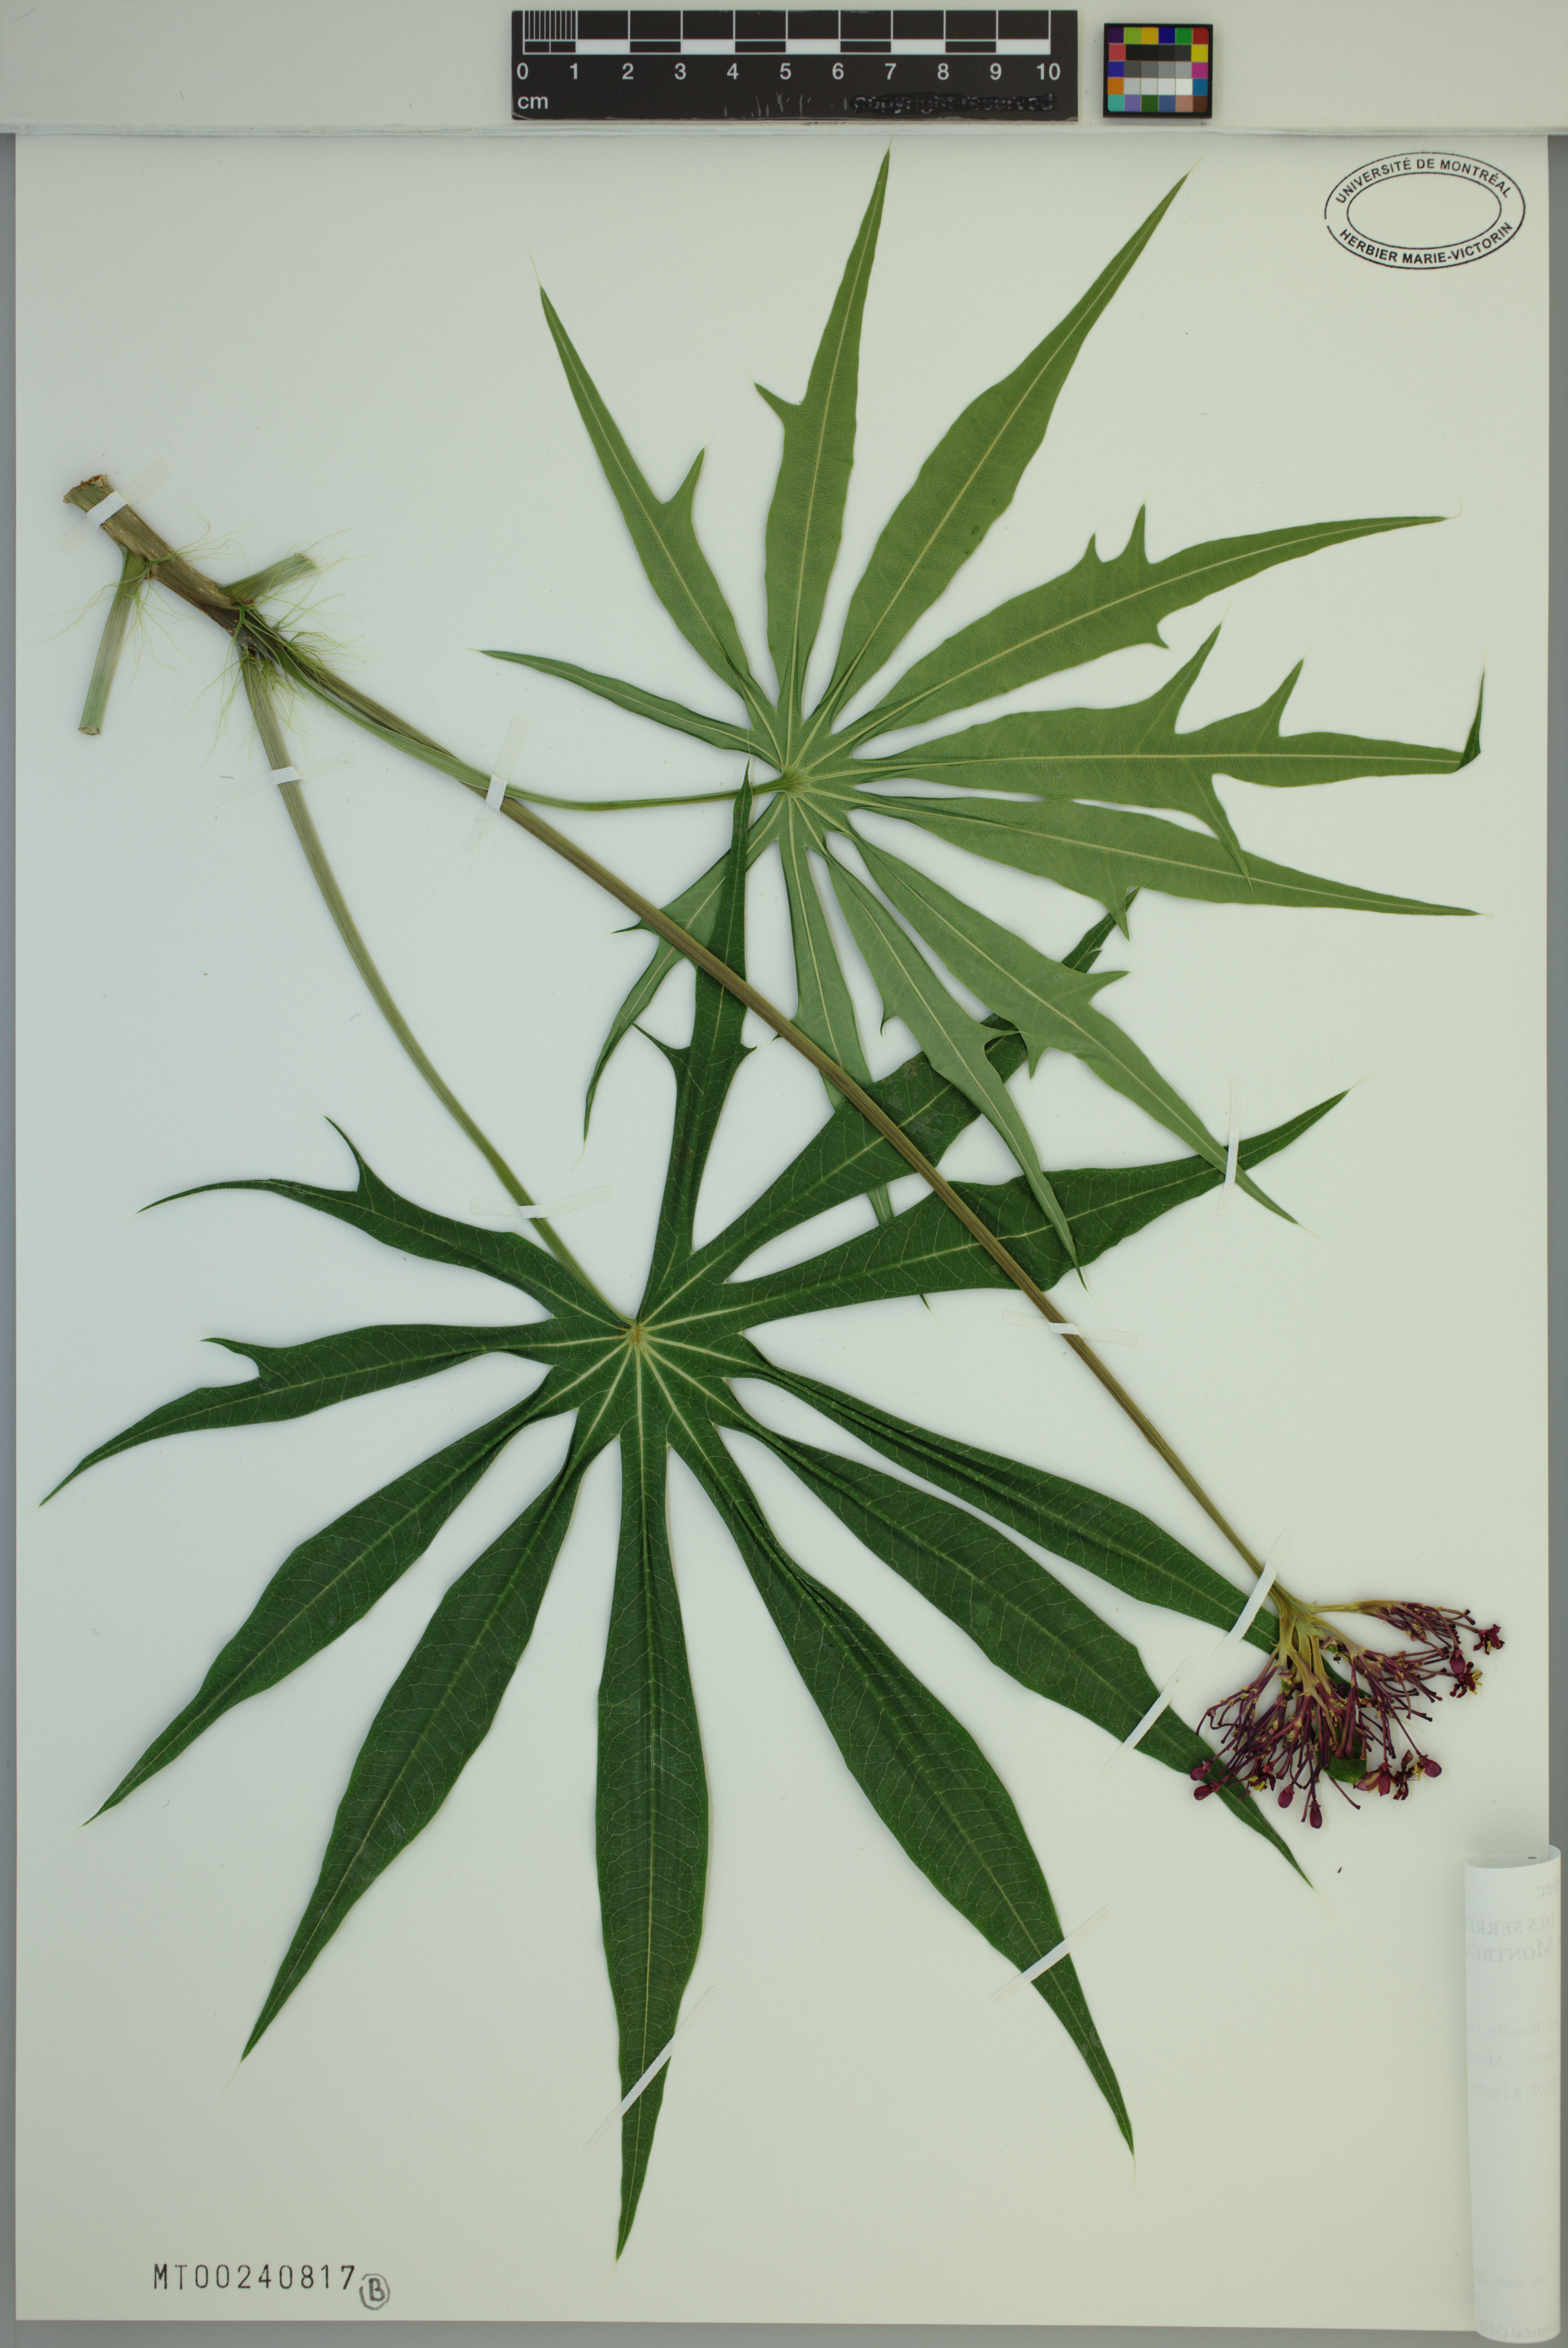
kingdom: Plantae
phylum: Tracheophyta
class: Magnoliopsida
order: Malpighiales
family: Euphorbiaceae
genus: Jatropha
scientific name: Jatropha multifida
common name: Coralbush
